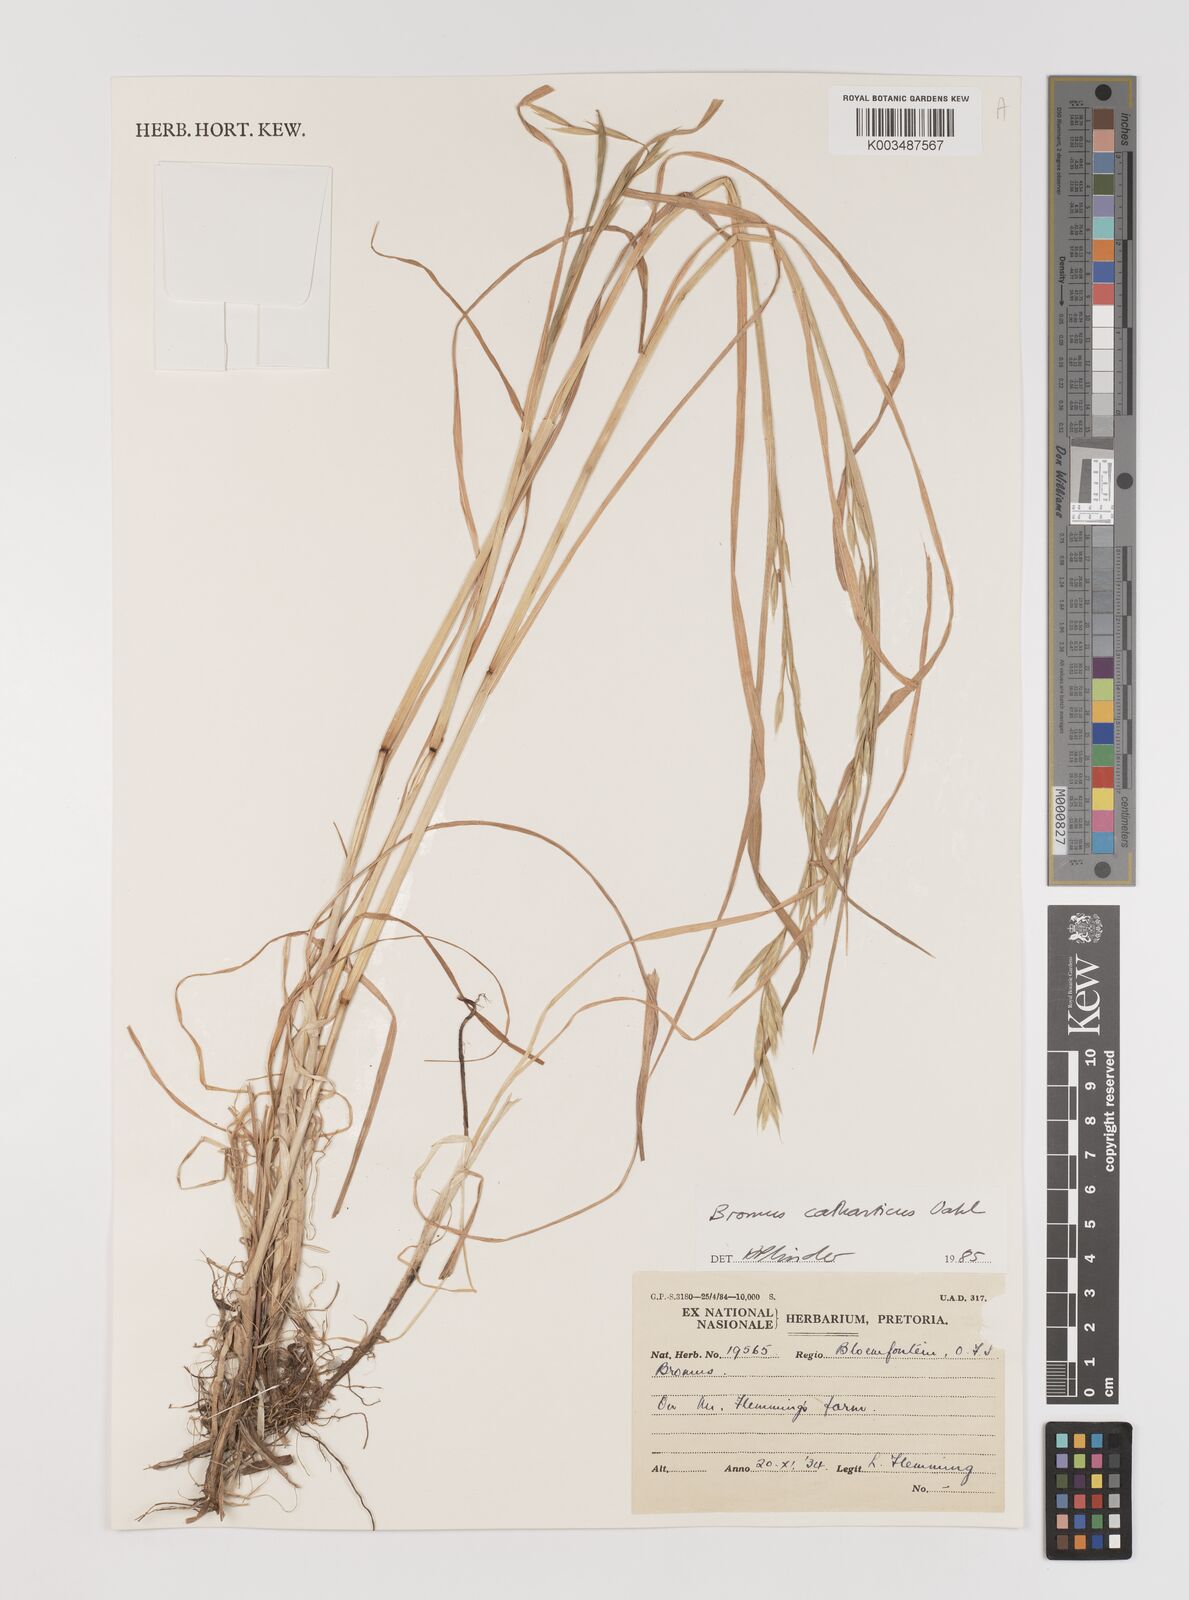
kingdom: Plantae
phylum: Tracheophyta
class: Liliopsida
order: Poales
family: Poaceae
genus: Bromus
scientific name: Bromus catharticus
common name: Rescuegrass
